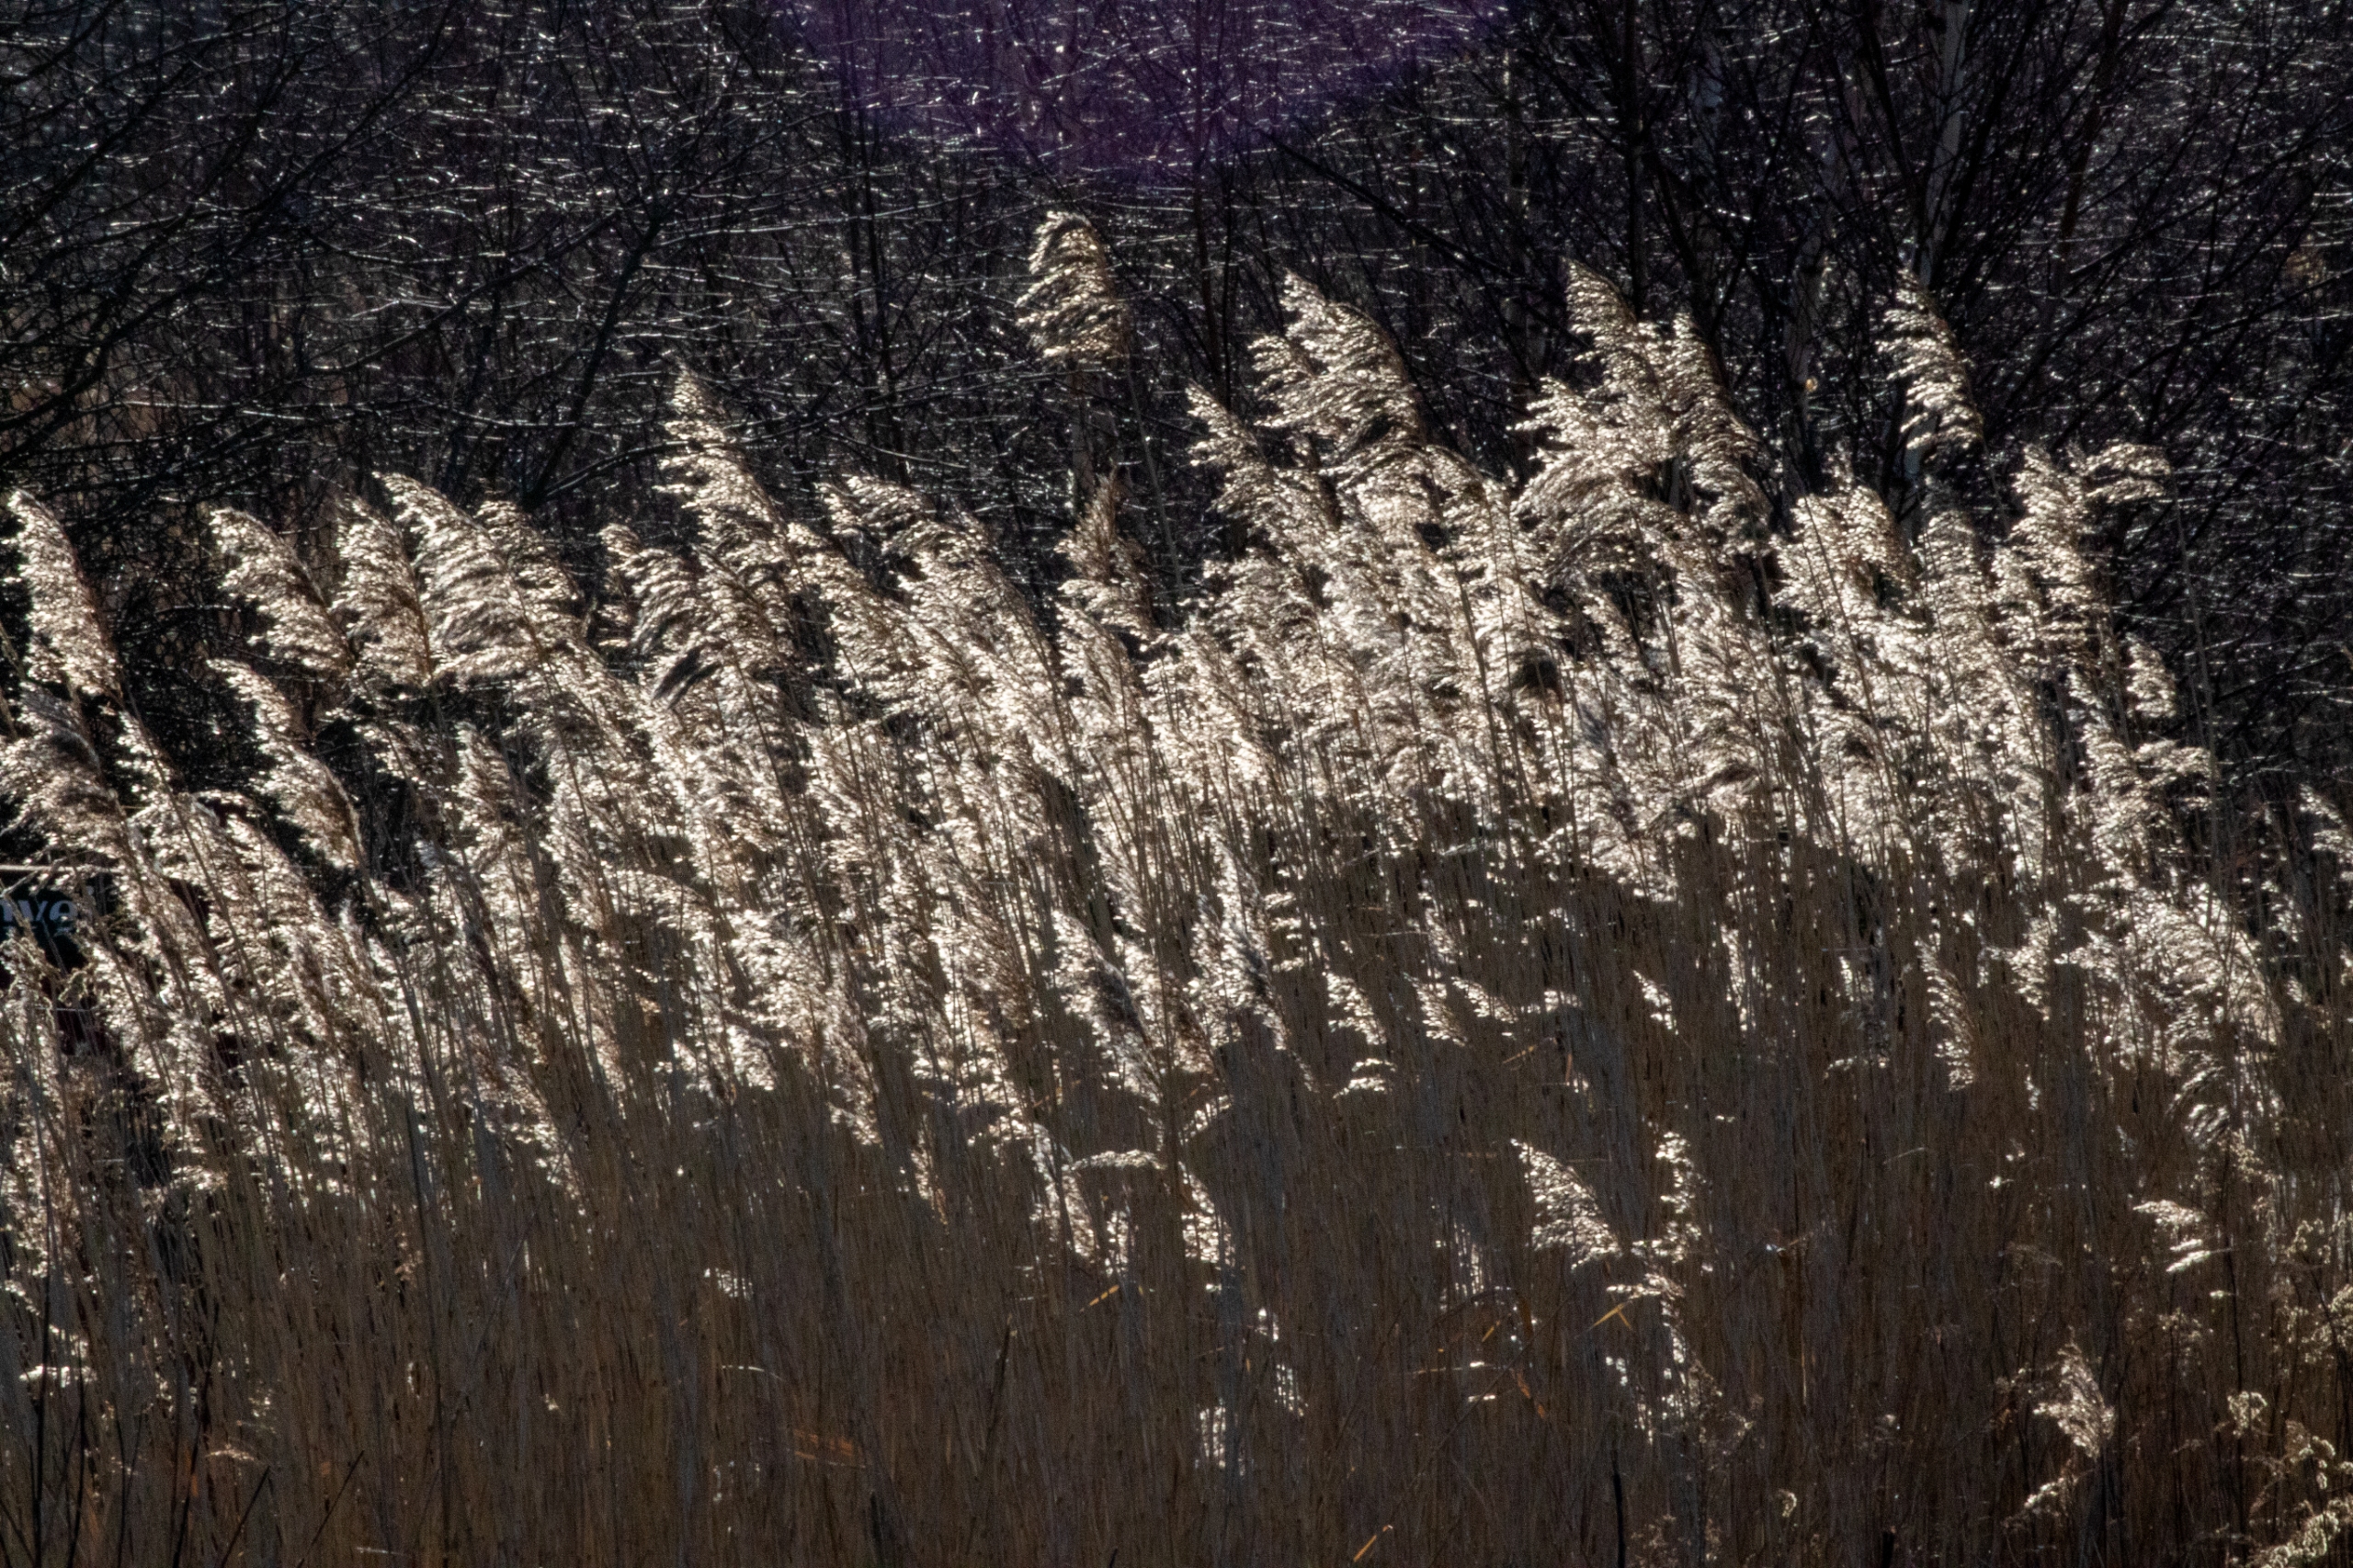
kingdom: Plantae
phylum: Tracheophyta
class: Liliopsida
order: Poales
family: Poaceae
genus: Phragmites
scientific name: Phragmites australis
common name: Tagrør
